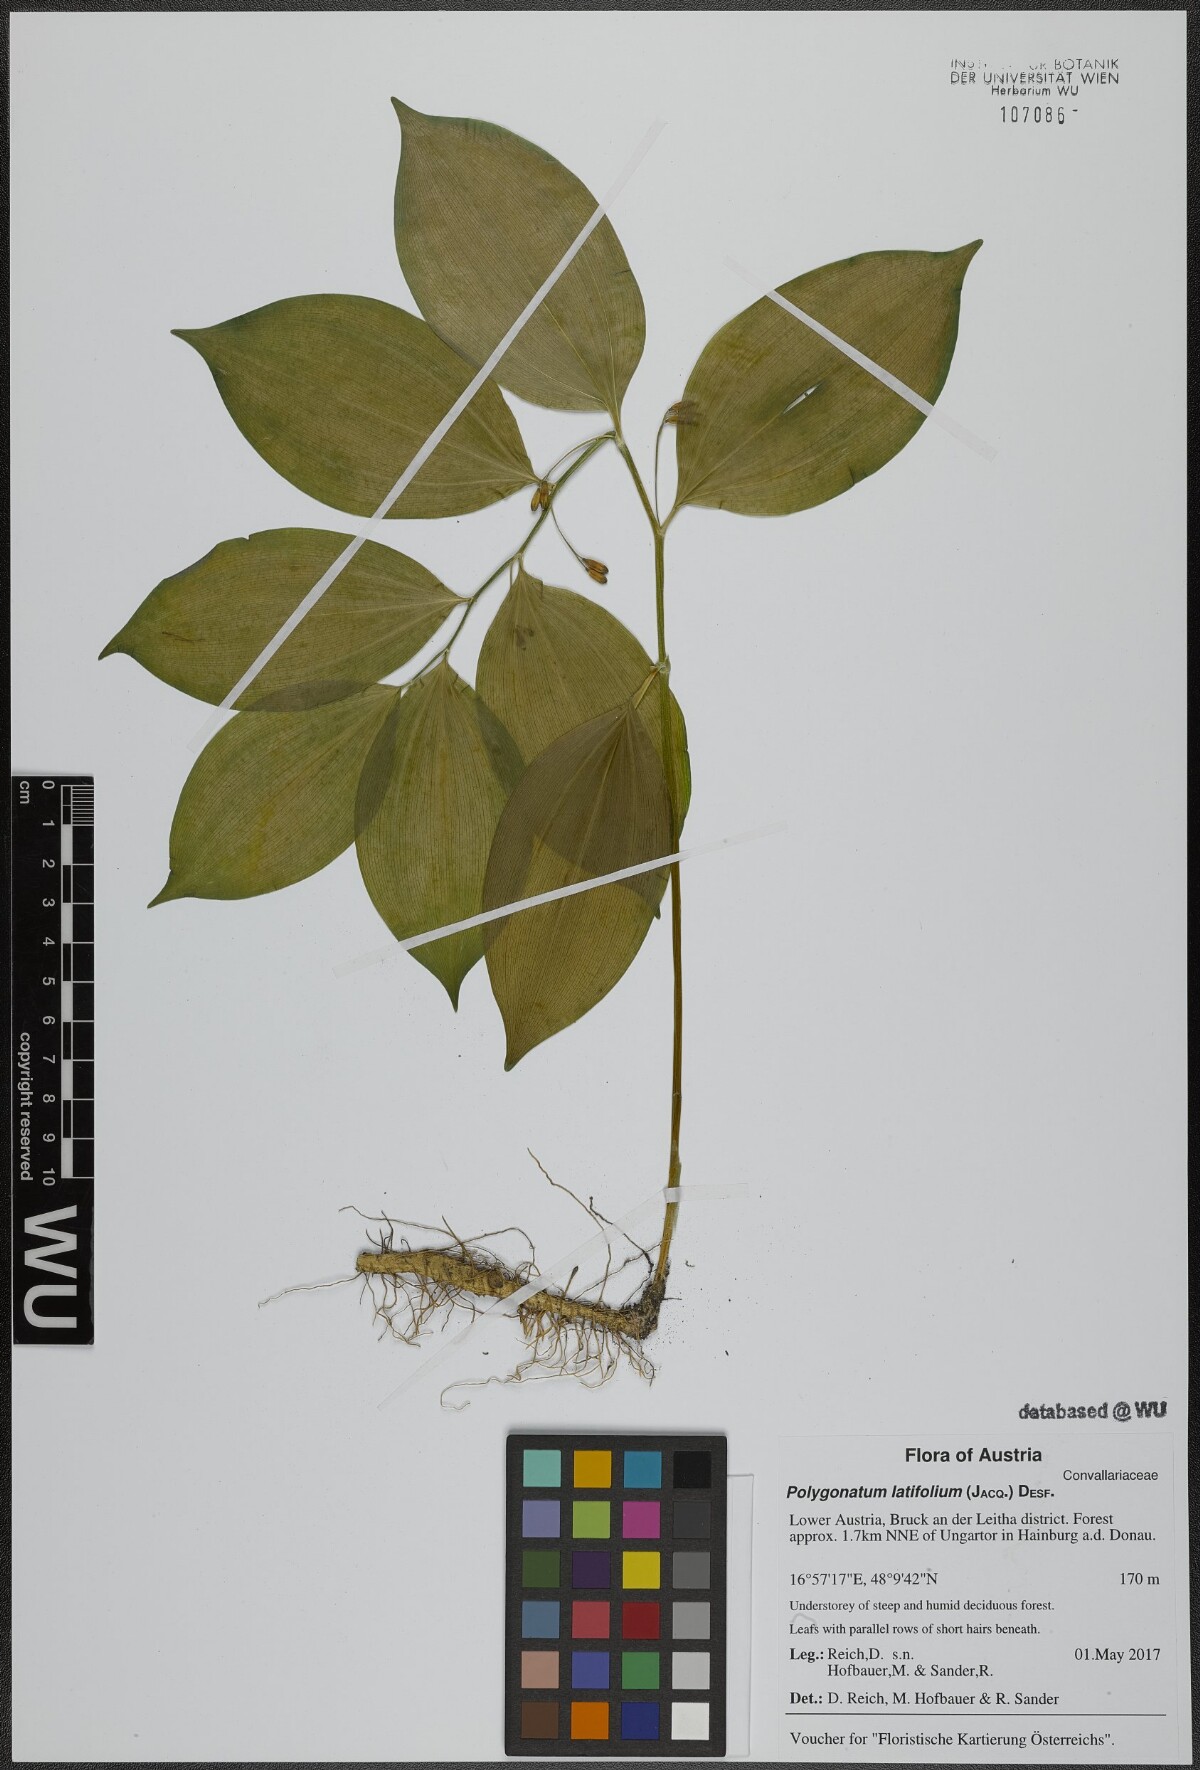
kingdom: Plantae
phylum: Tracheophyta
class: Liliopsida
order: Asparagales
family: Asparagaceae
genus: Polygonatum
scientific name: Polygonatum latifolium
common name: Broadleaf solomon's seal
